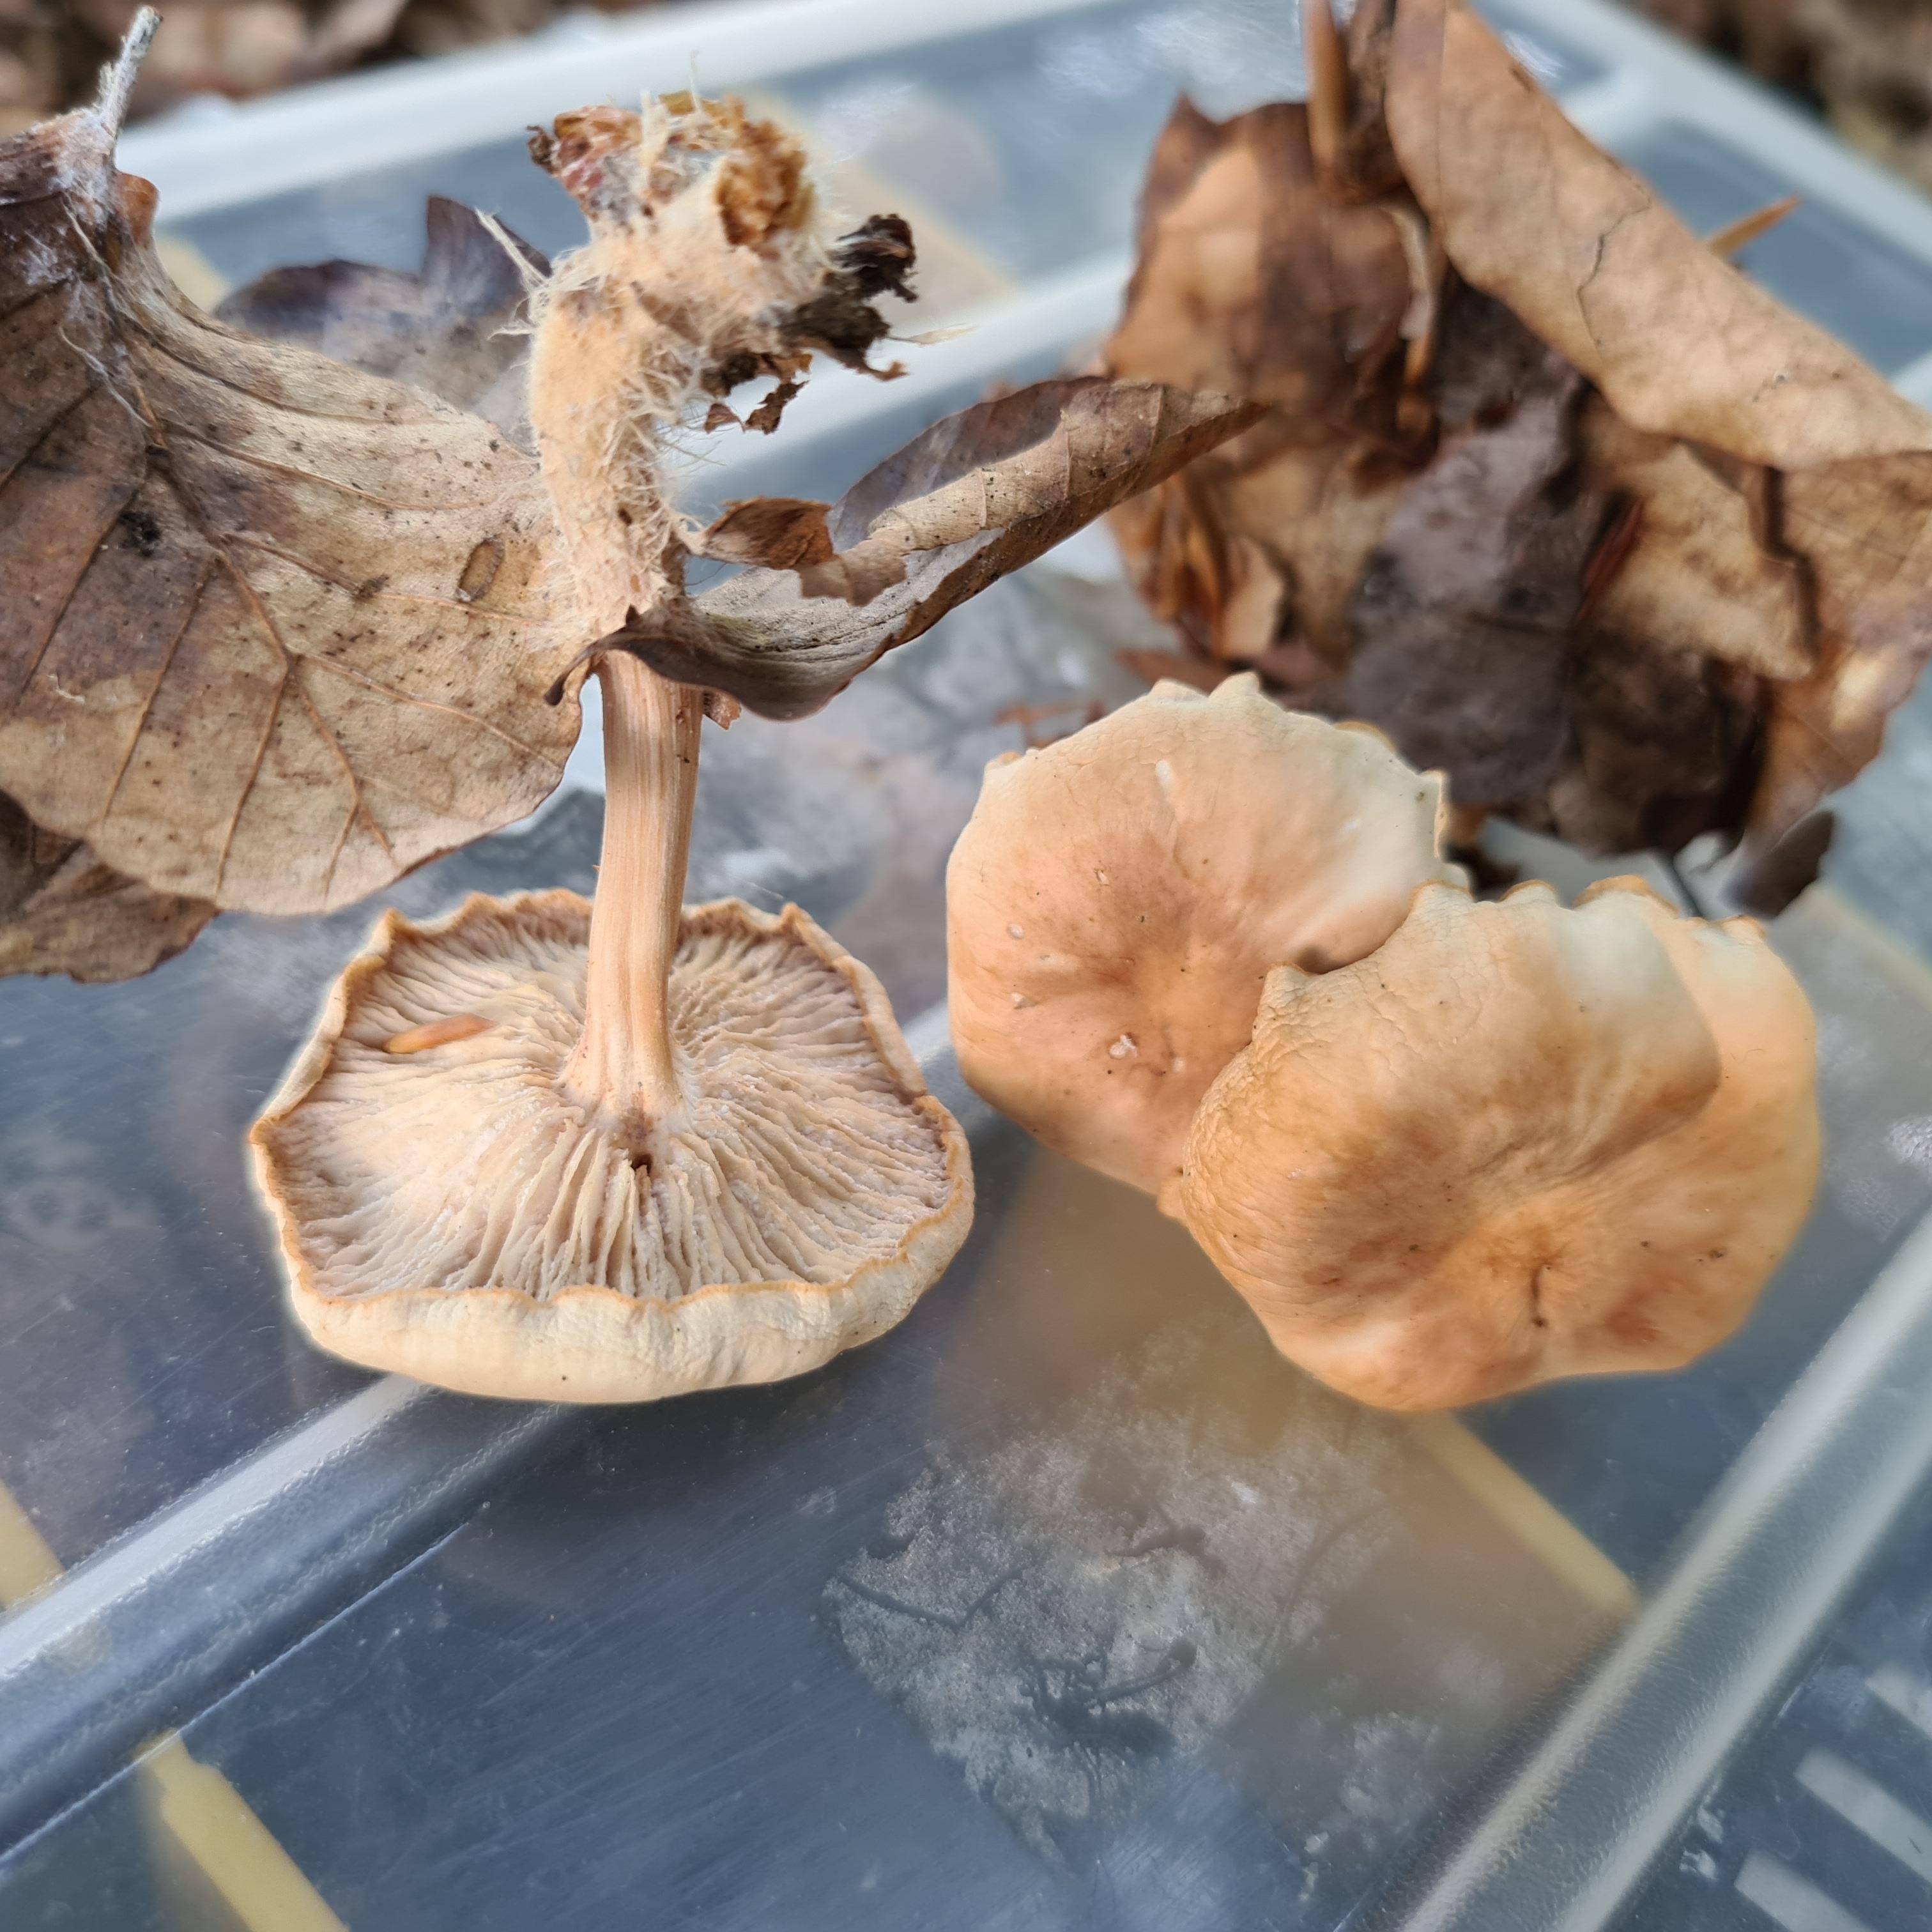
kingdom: Fungi
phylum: Basidiomycota
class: Agaricomycetes
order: Agaricales
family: Omphalotaceae
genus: Collybiopsis
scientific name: Collybiopsis peronata
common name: bestøvlet fladhat
